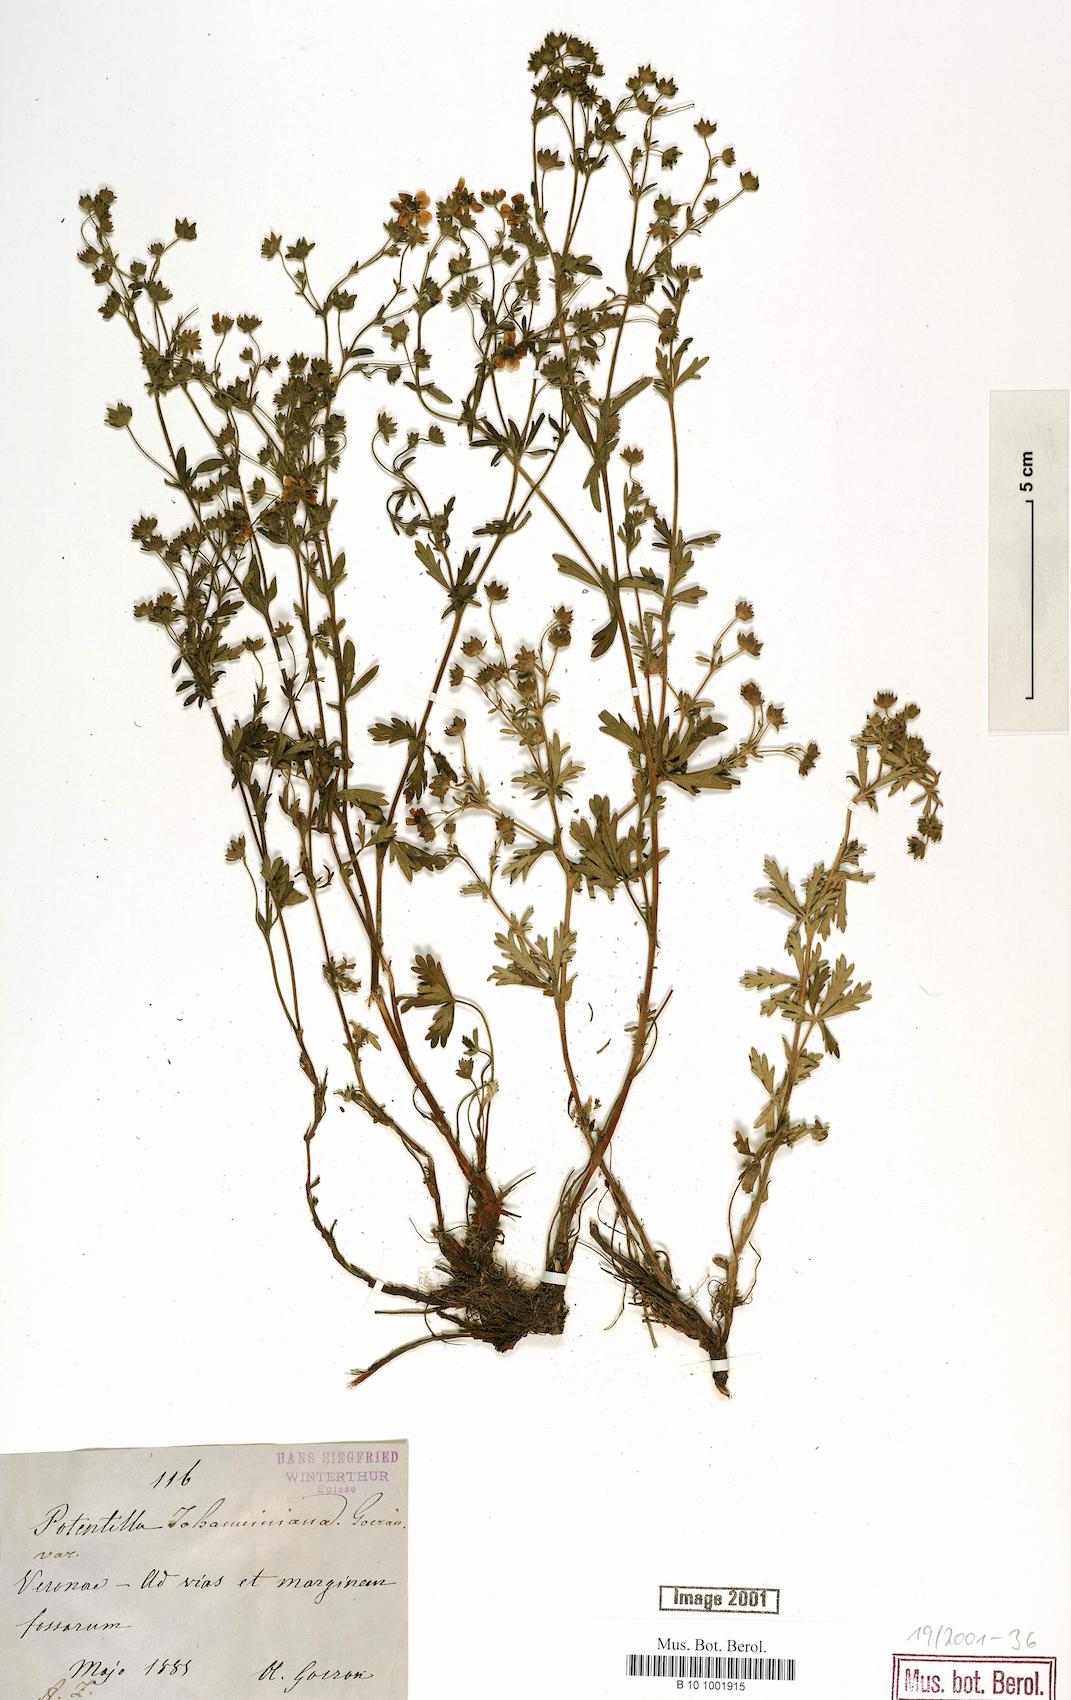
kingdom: Plantae
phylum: Tracheophyta
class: Magnoliopsida
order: Rosales
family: Rosaceae
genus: Potentilla
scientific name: Potentilla johanniniana
